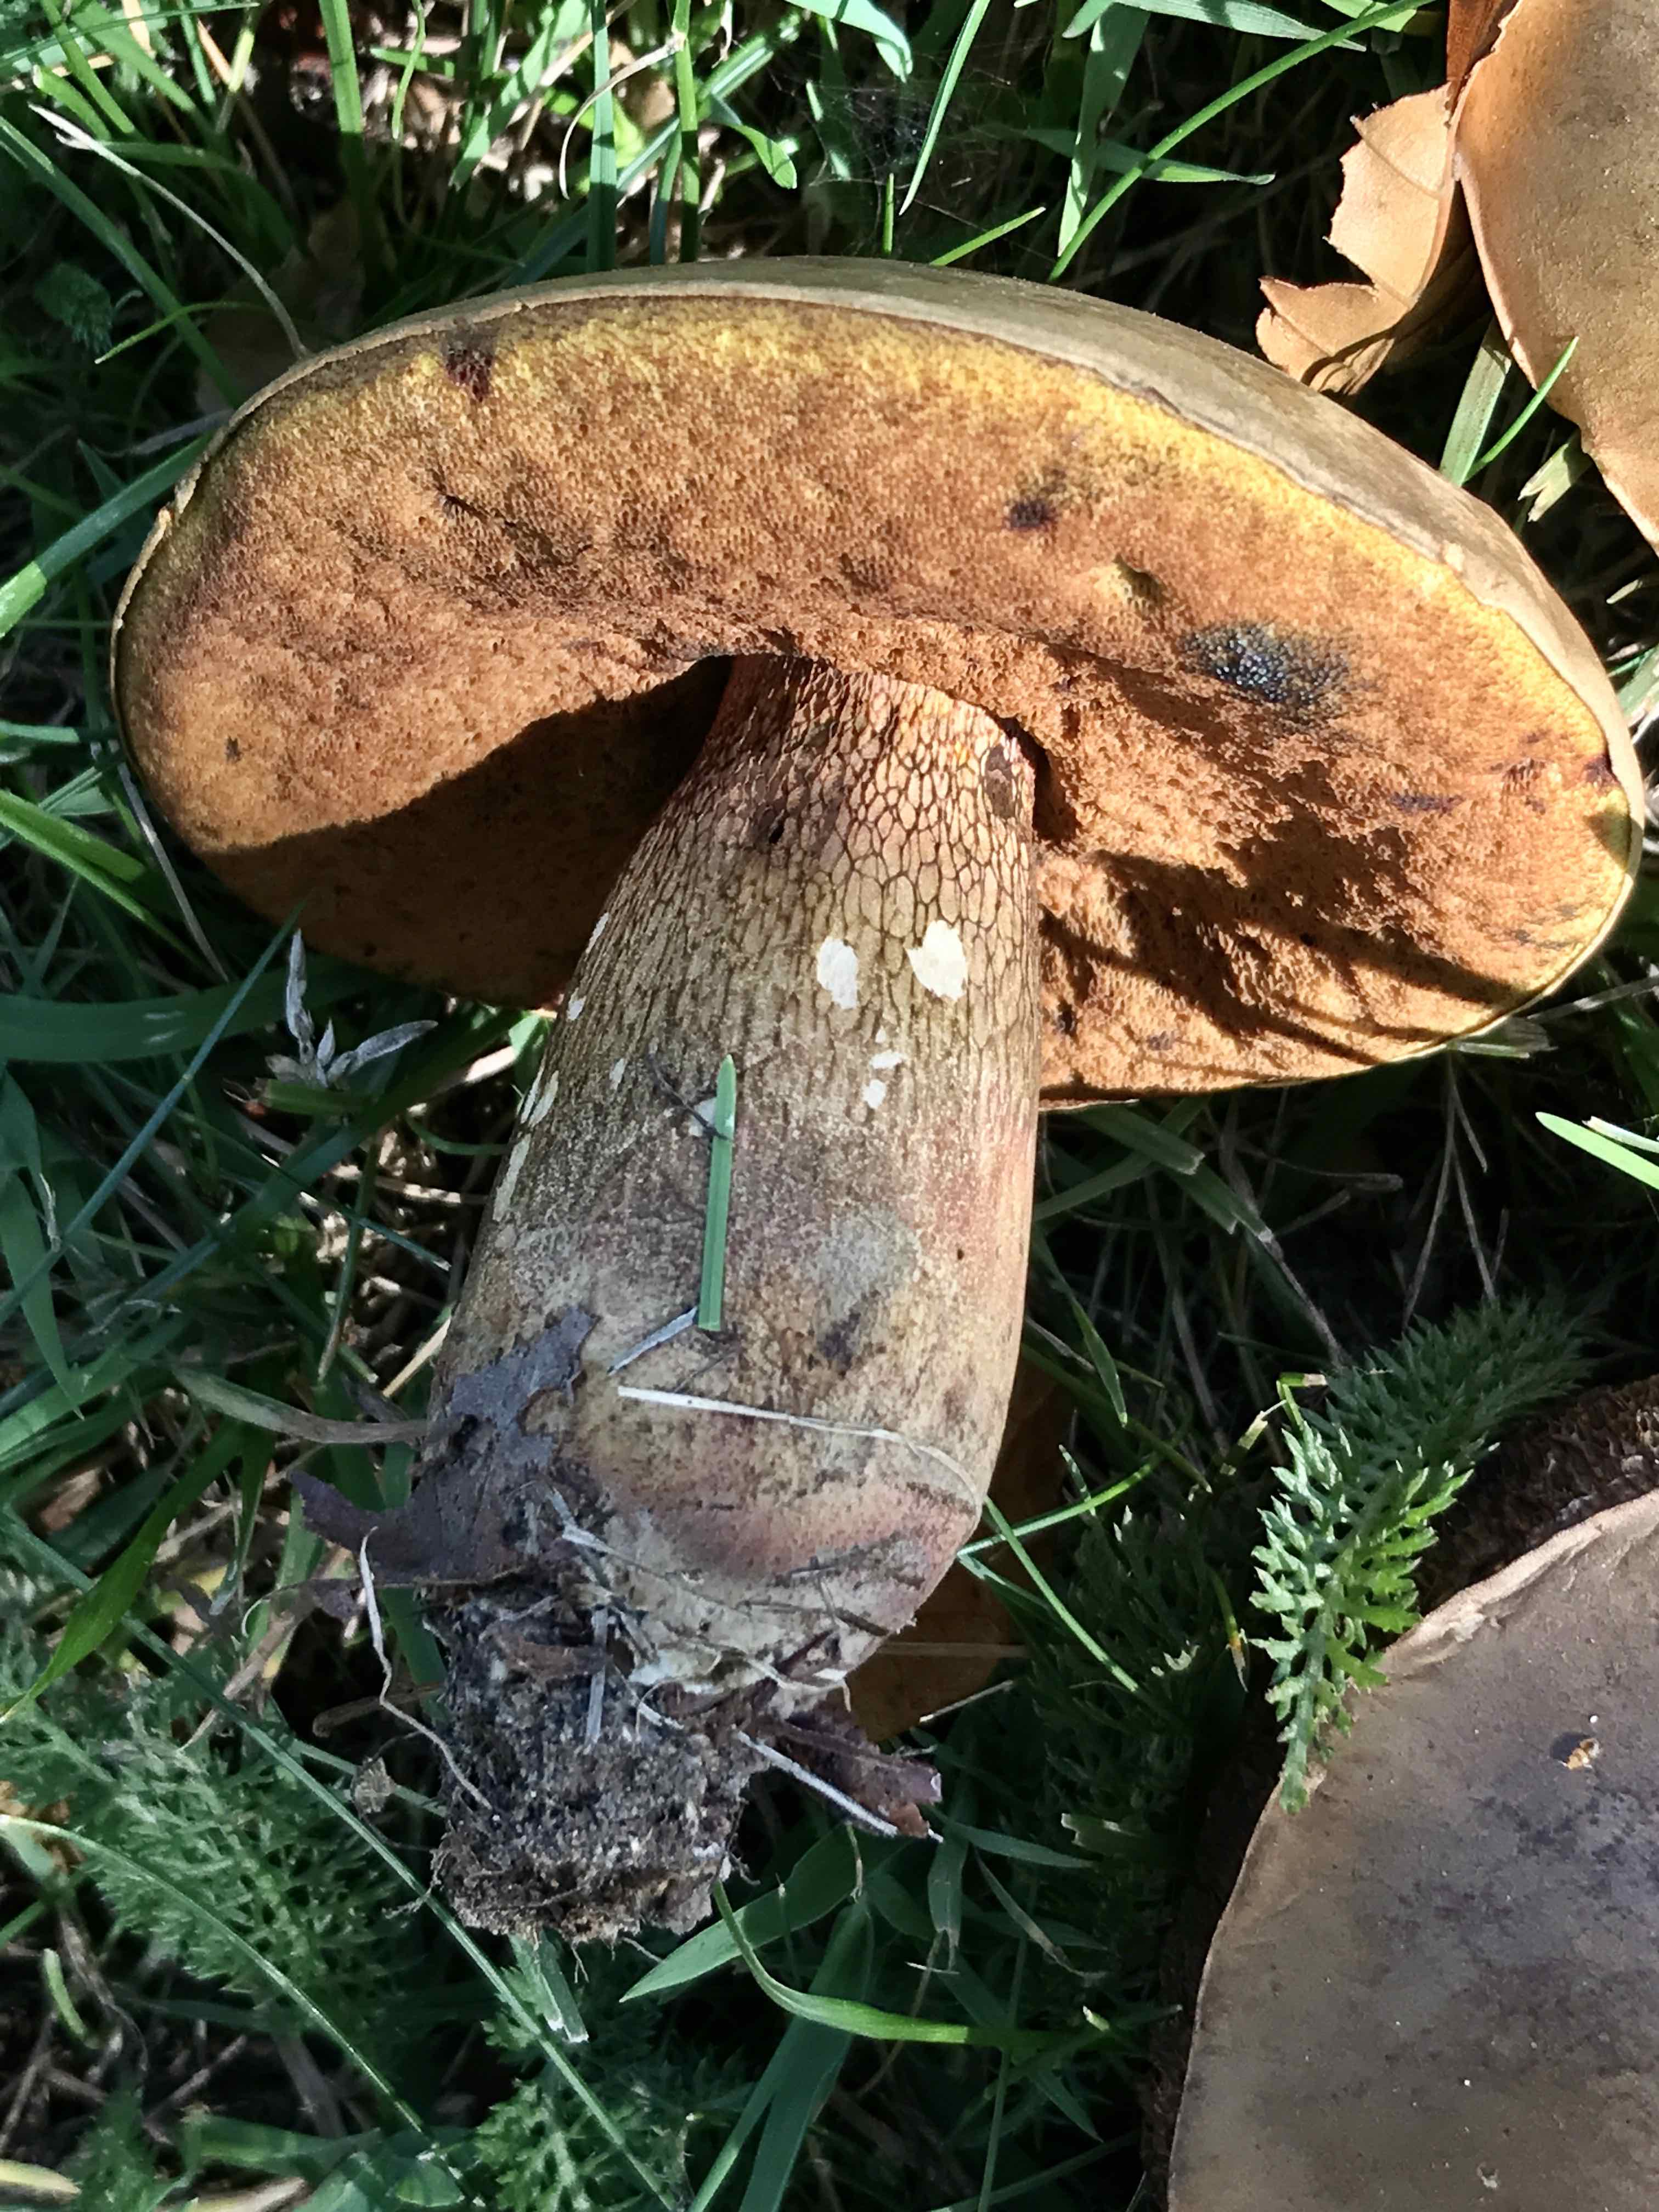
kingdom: Fungi
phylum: Basidiomycota
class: Agaricomycetes
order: Boletales
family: Boletaceae
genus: Suillellus
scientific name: Suillellus luridus
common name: netstokket indigorørhat
